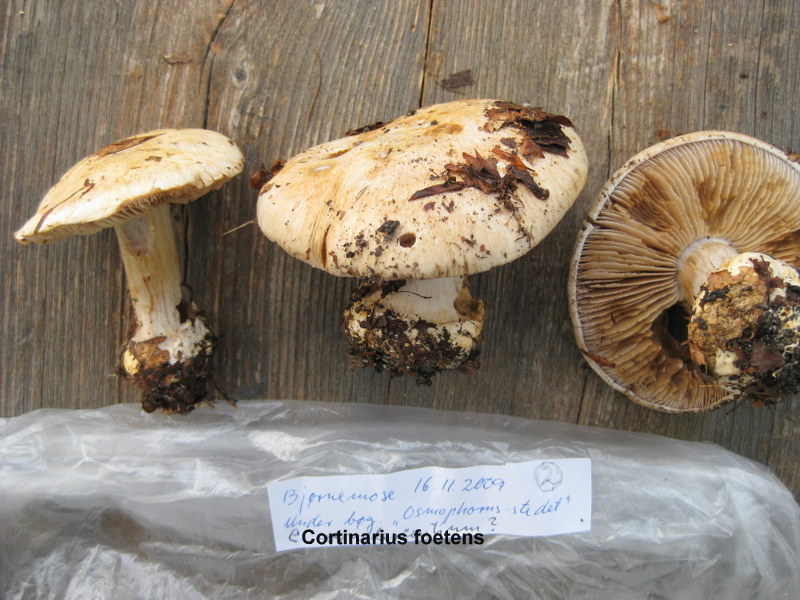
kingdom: Fungi
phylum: Basidiomycota
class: Agaricomycetes
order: Agaricales
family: Cortinariaceae
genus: Cortinarius
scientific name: Cortinarius foetens
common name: stribet slørhat
